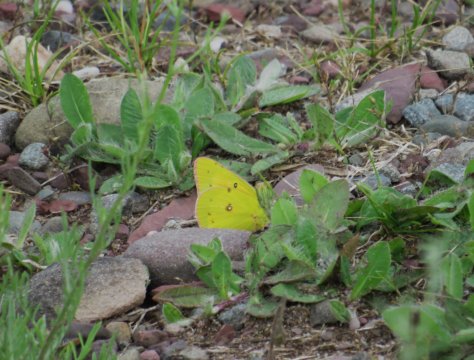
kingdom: Animalia
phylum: Arthropoda
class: Insecta
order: Lepidoptera
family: Pieridae
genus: Colias
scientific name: Colias eurytheme
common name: Orange Sulphur
